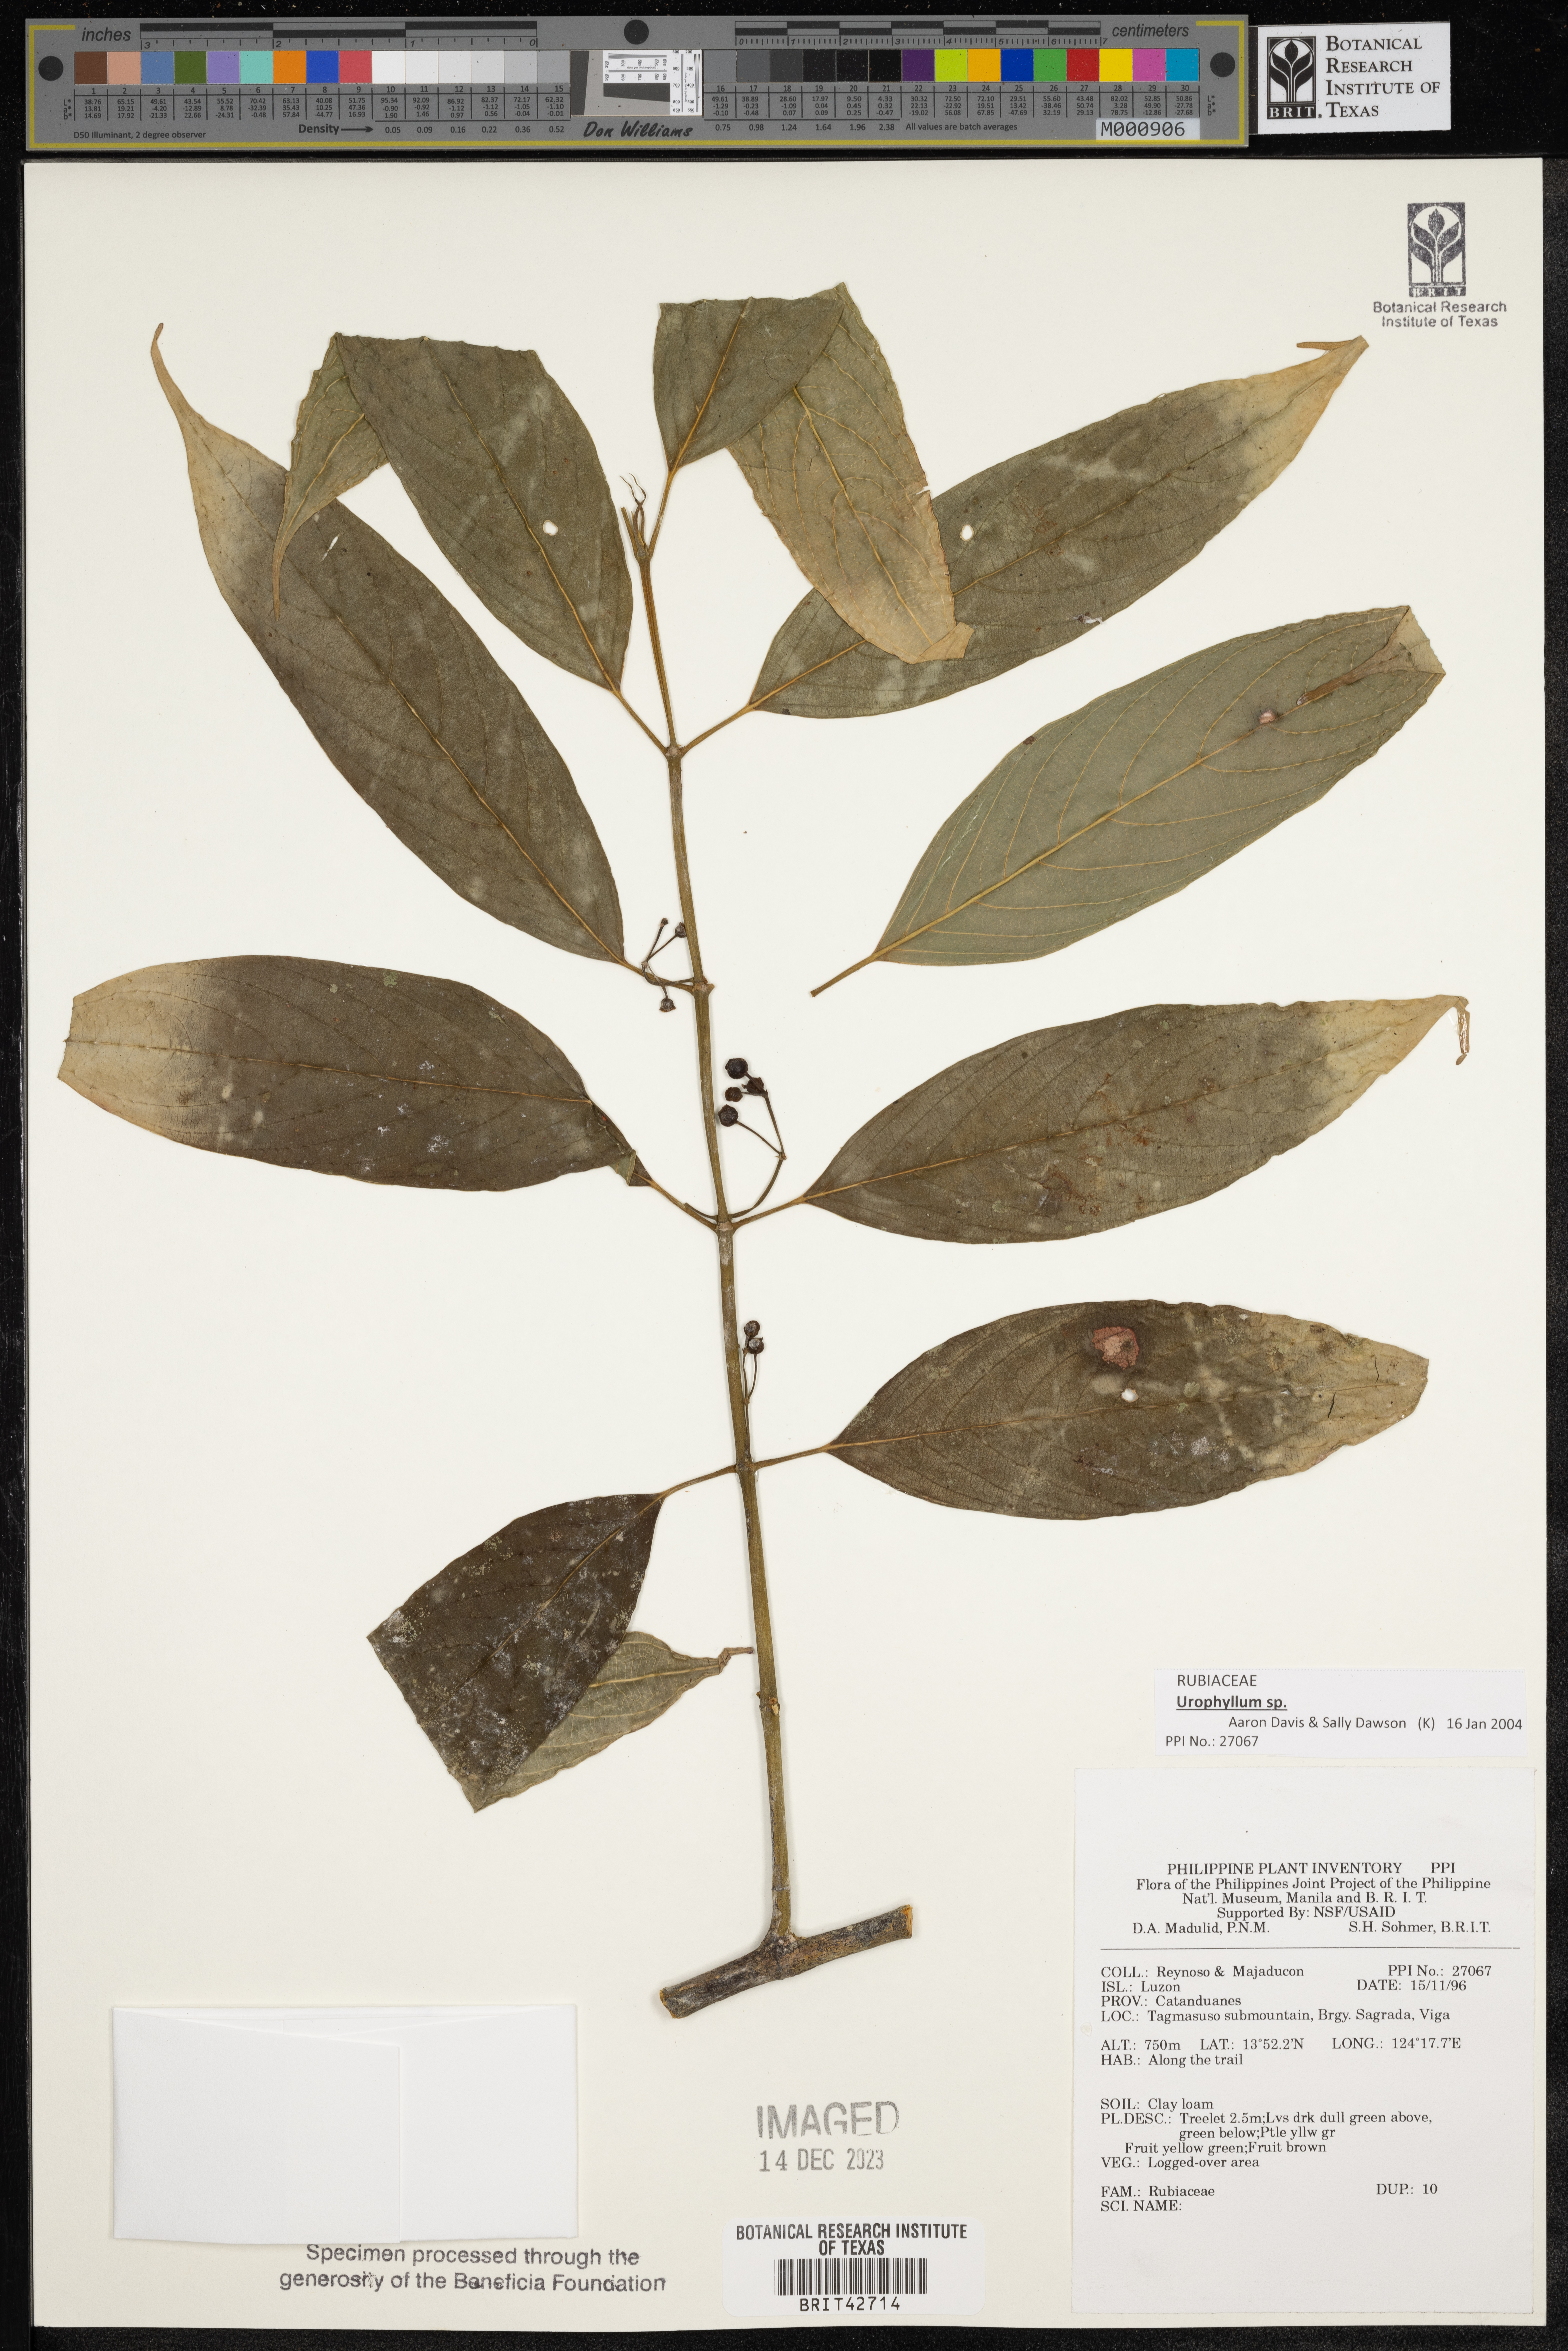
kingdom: Plantae
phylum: Tracheophyta
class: Magnoliopsida
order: Gentianales
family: Rubiaceae
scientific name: Rubiaceae
